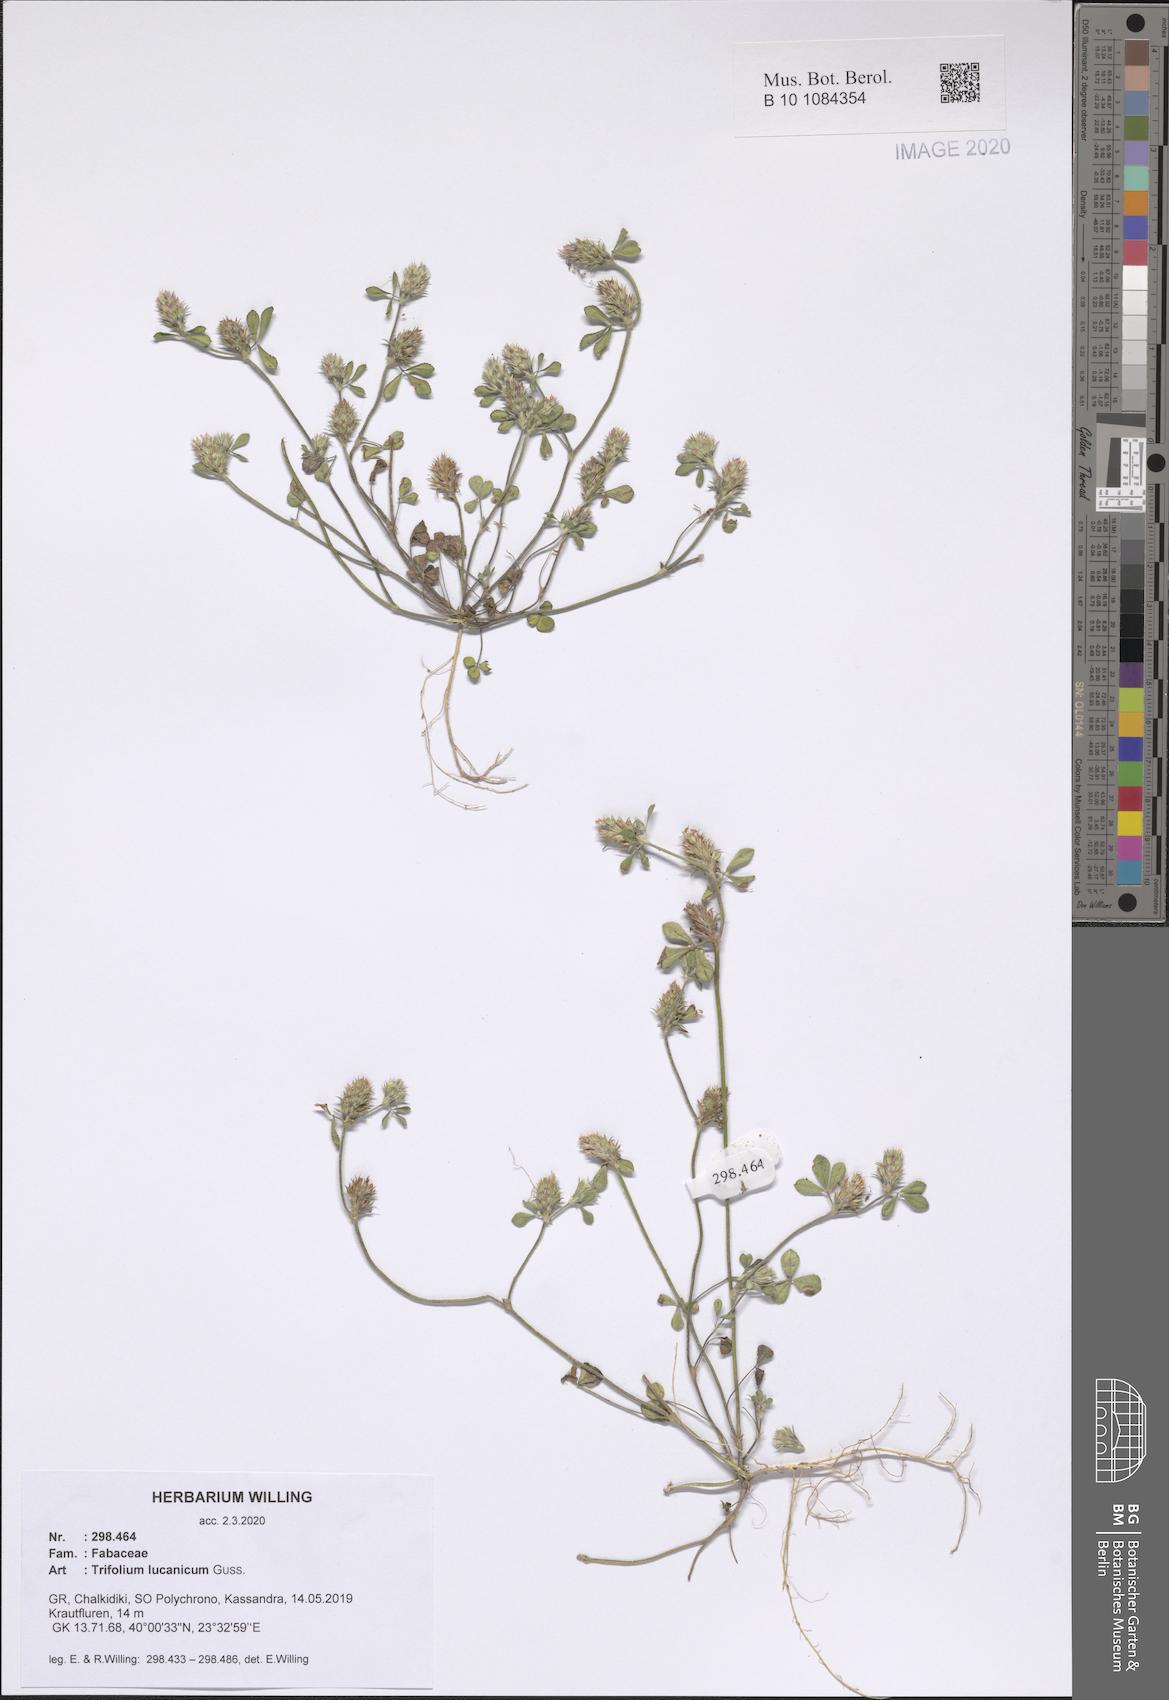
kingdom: Plantae
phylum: Tracheophyta
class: Magnoliopsida
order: Fabales
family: Fabaceae
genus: Trifolium
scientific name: Trifolium lucanicum
